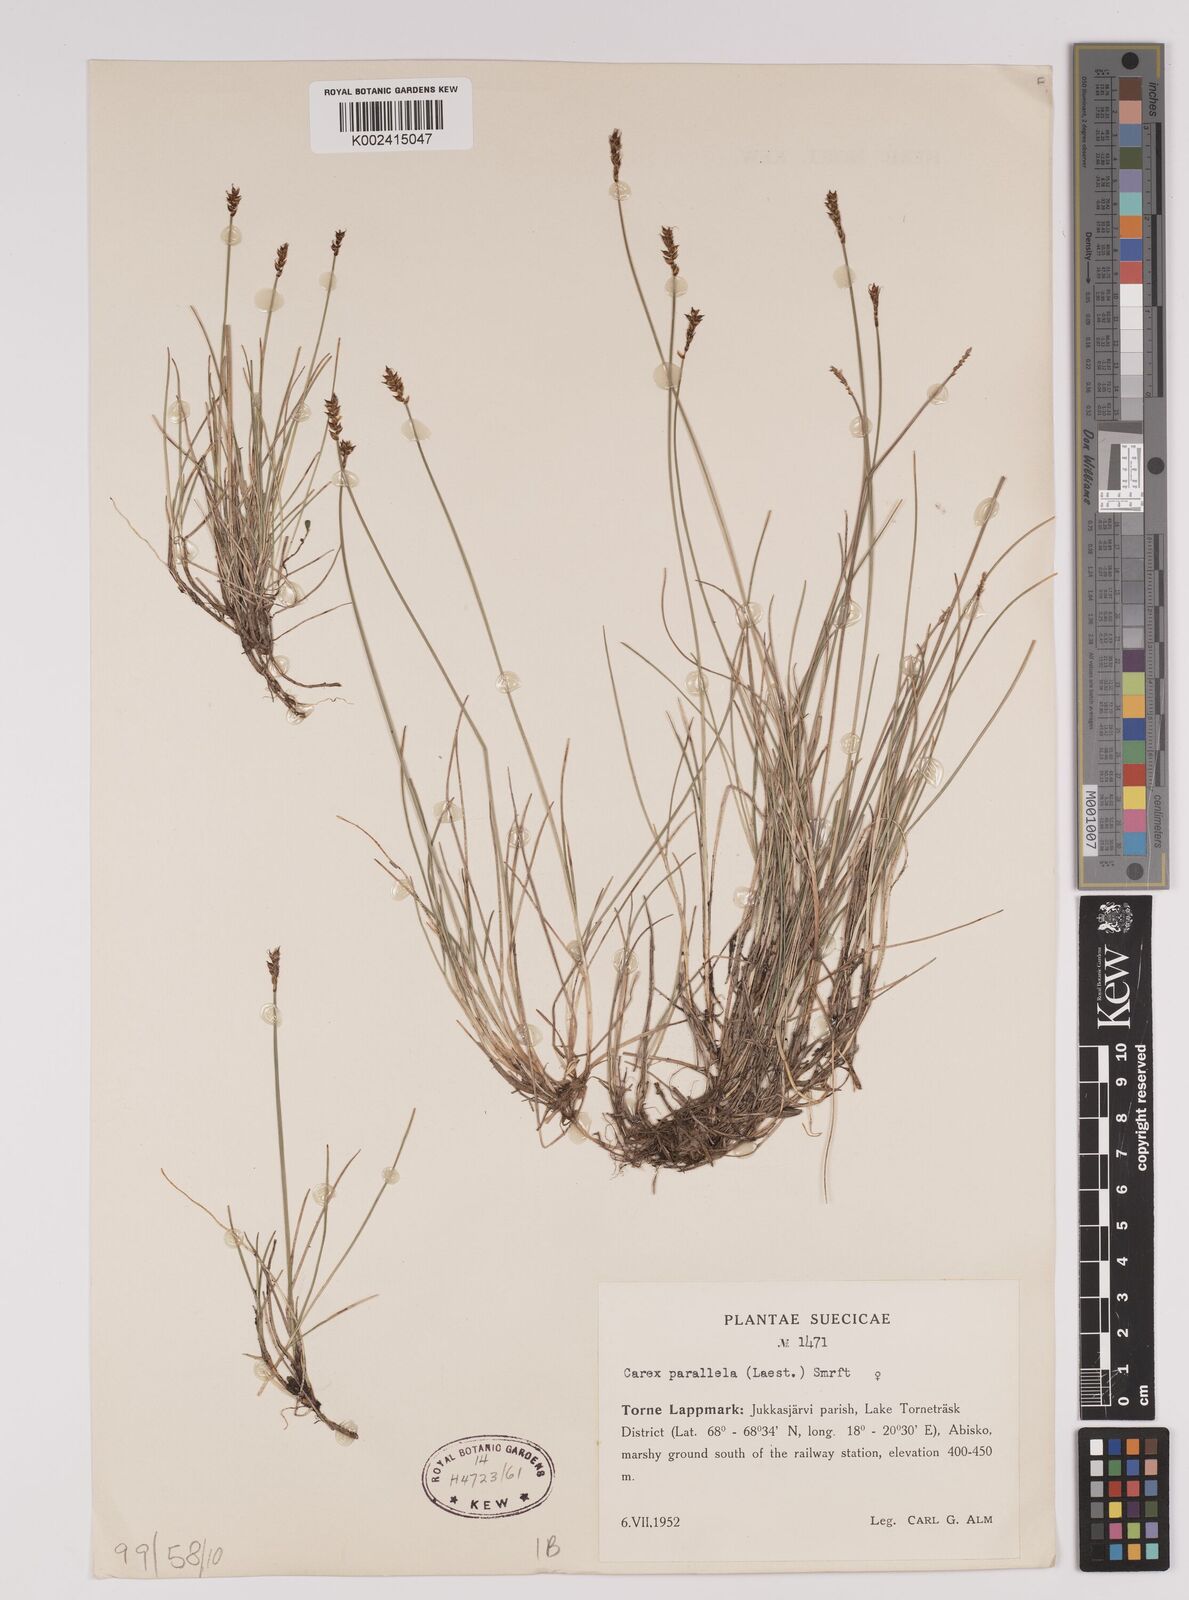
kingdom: Plantae
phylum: Tracheophyta
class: Liliopsida
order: Poales
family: Cyperaceae
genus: Carex
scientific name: Carex parallela
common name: Parallel sedge
